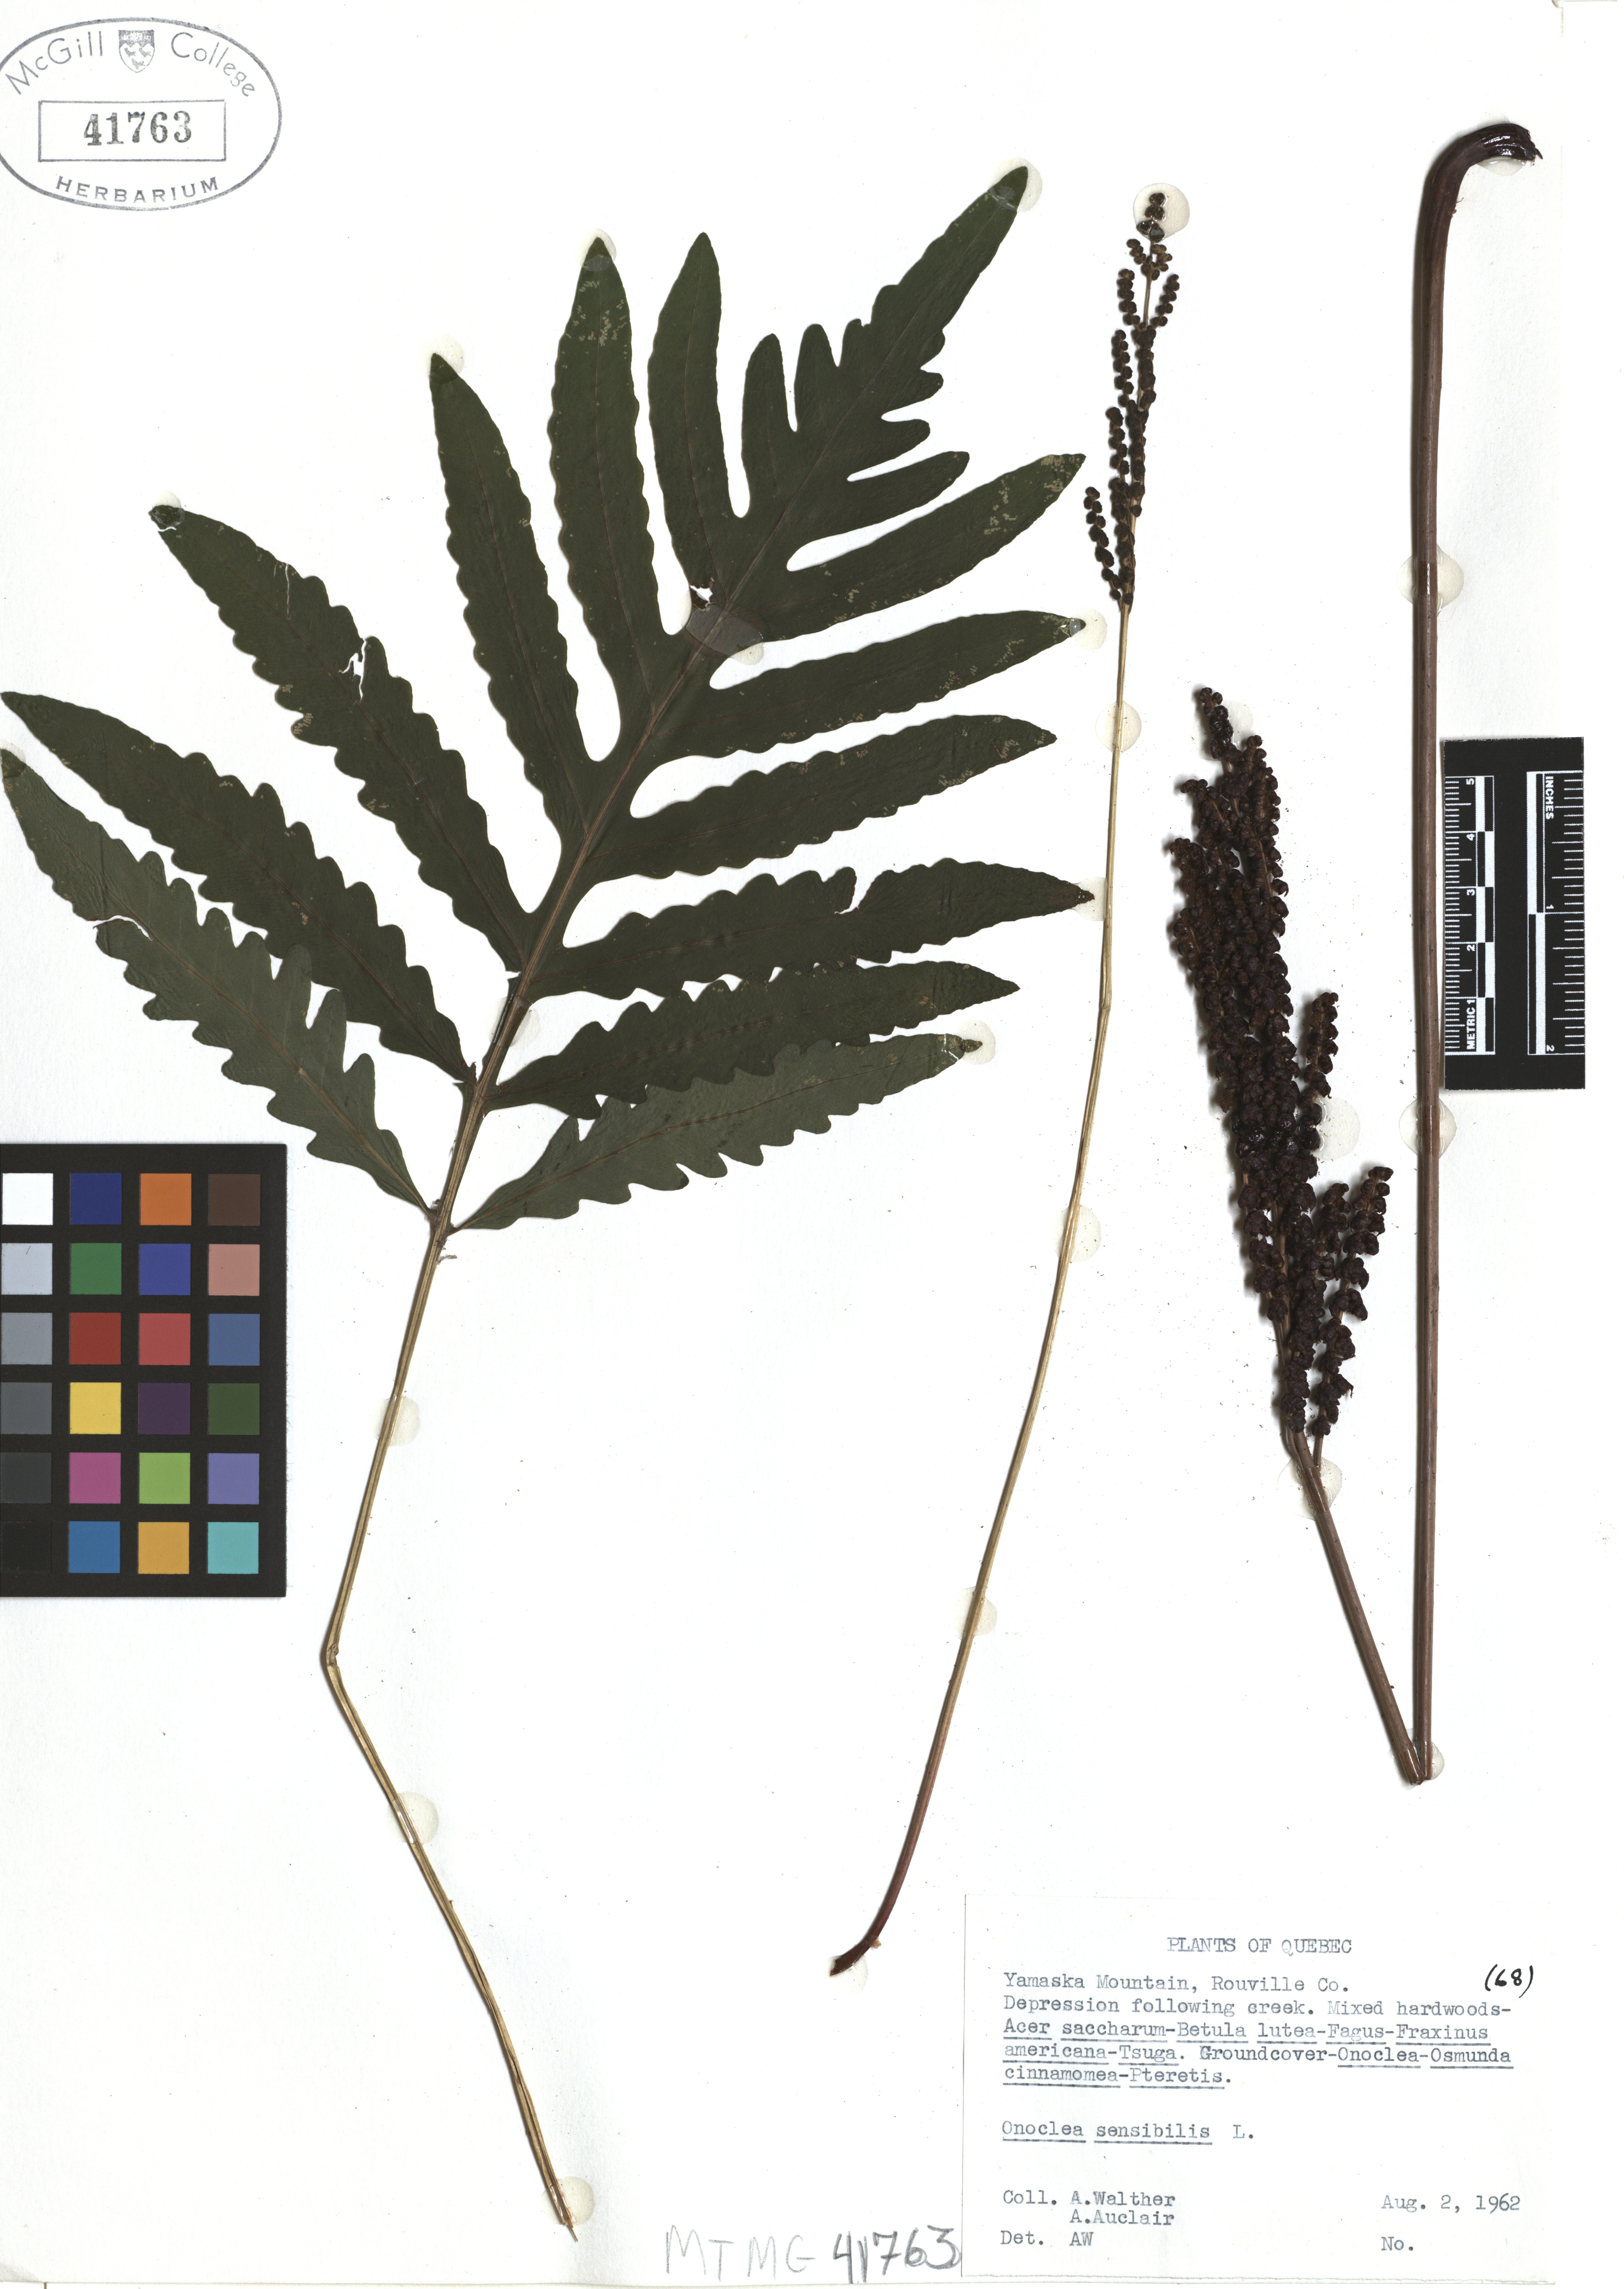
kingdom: Plantae
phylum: Tracheophyta
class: Polypodiopsida
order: Polypodiales
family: Onocleaceae
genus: Onoclea
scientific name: Onoclea sensibilis
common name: Sensitive fern
